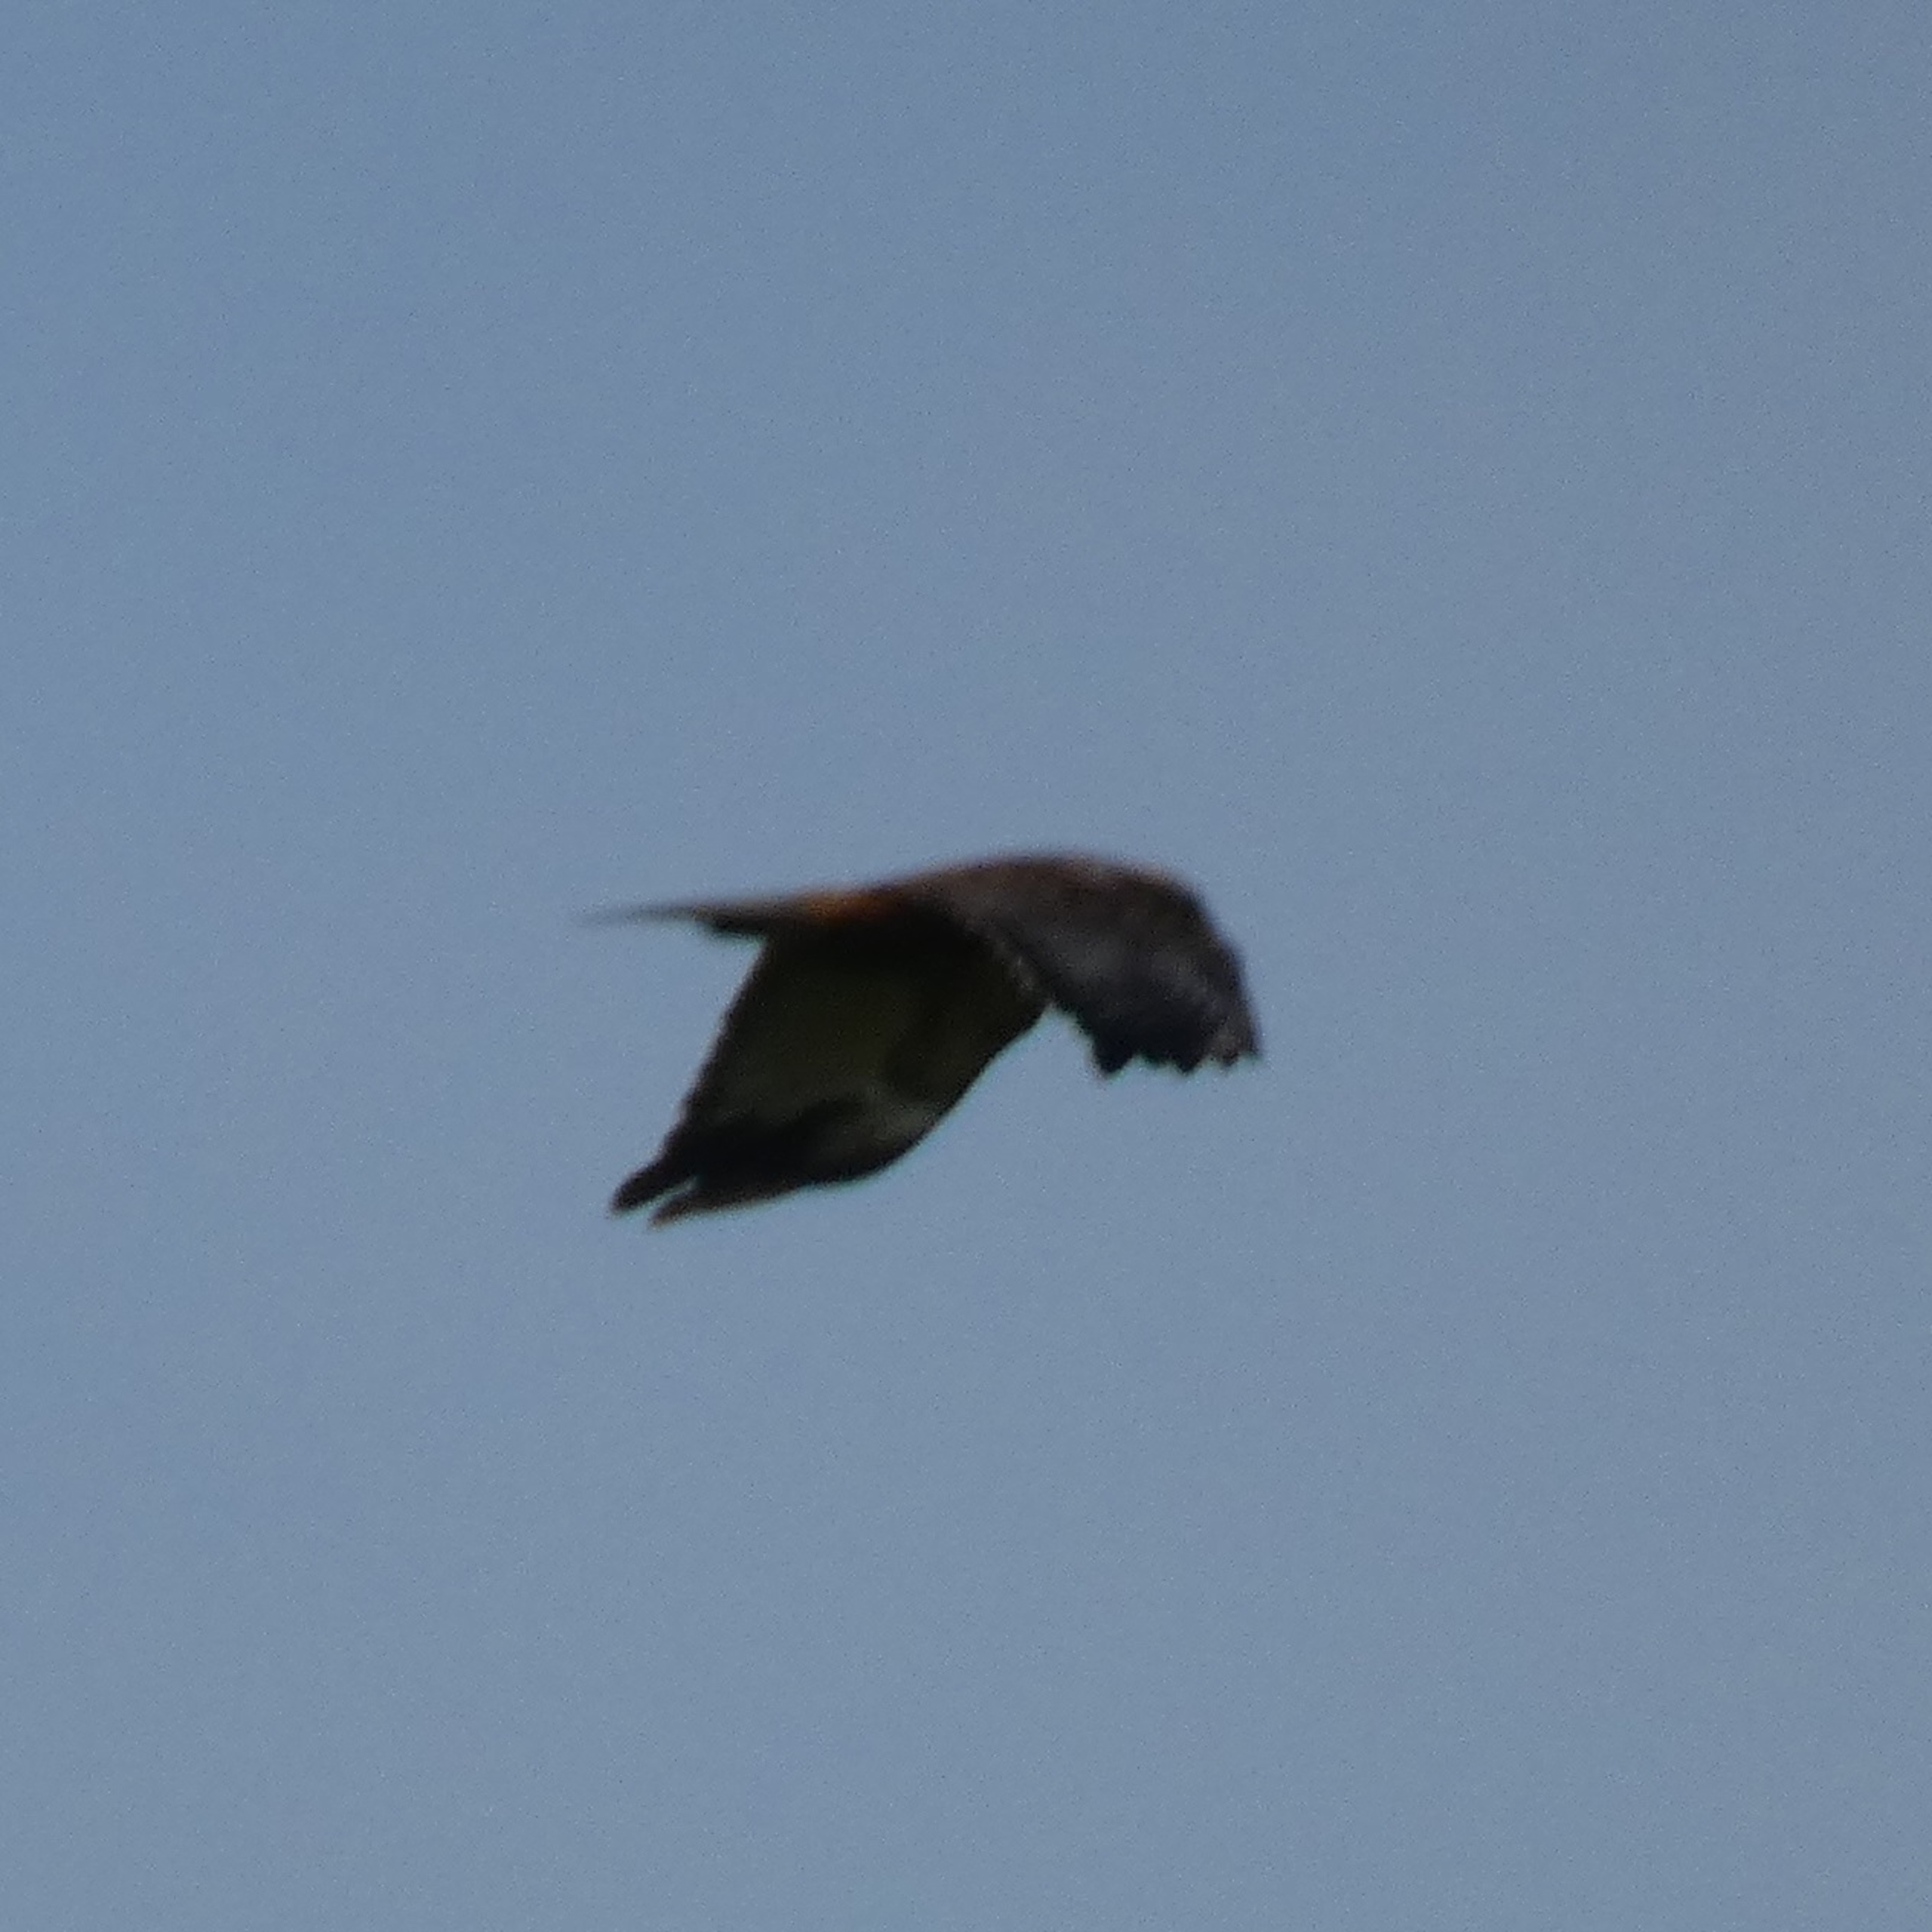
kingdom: Animalia
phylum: Chordata
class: Aves
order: Accipitriformes
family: Accipitridae
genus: Circus
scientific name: Circus aeruginosus
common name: Rørhøg
